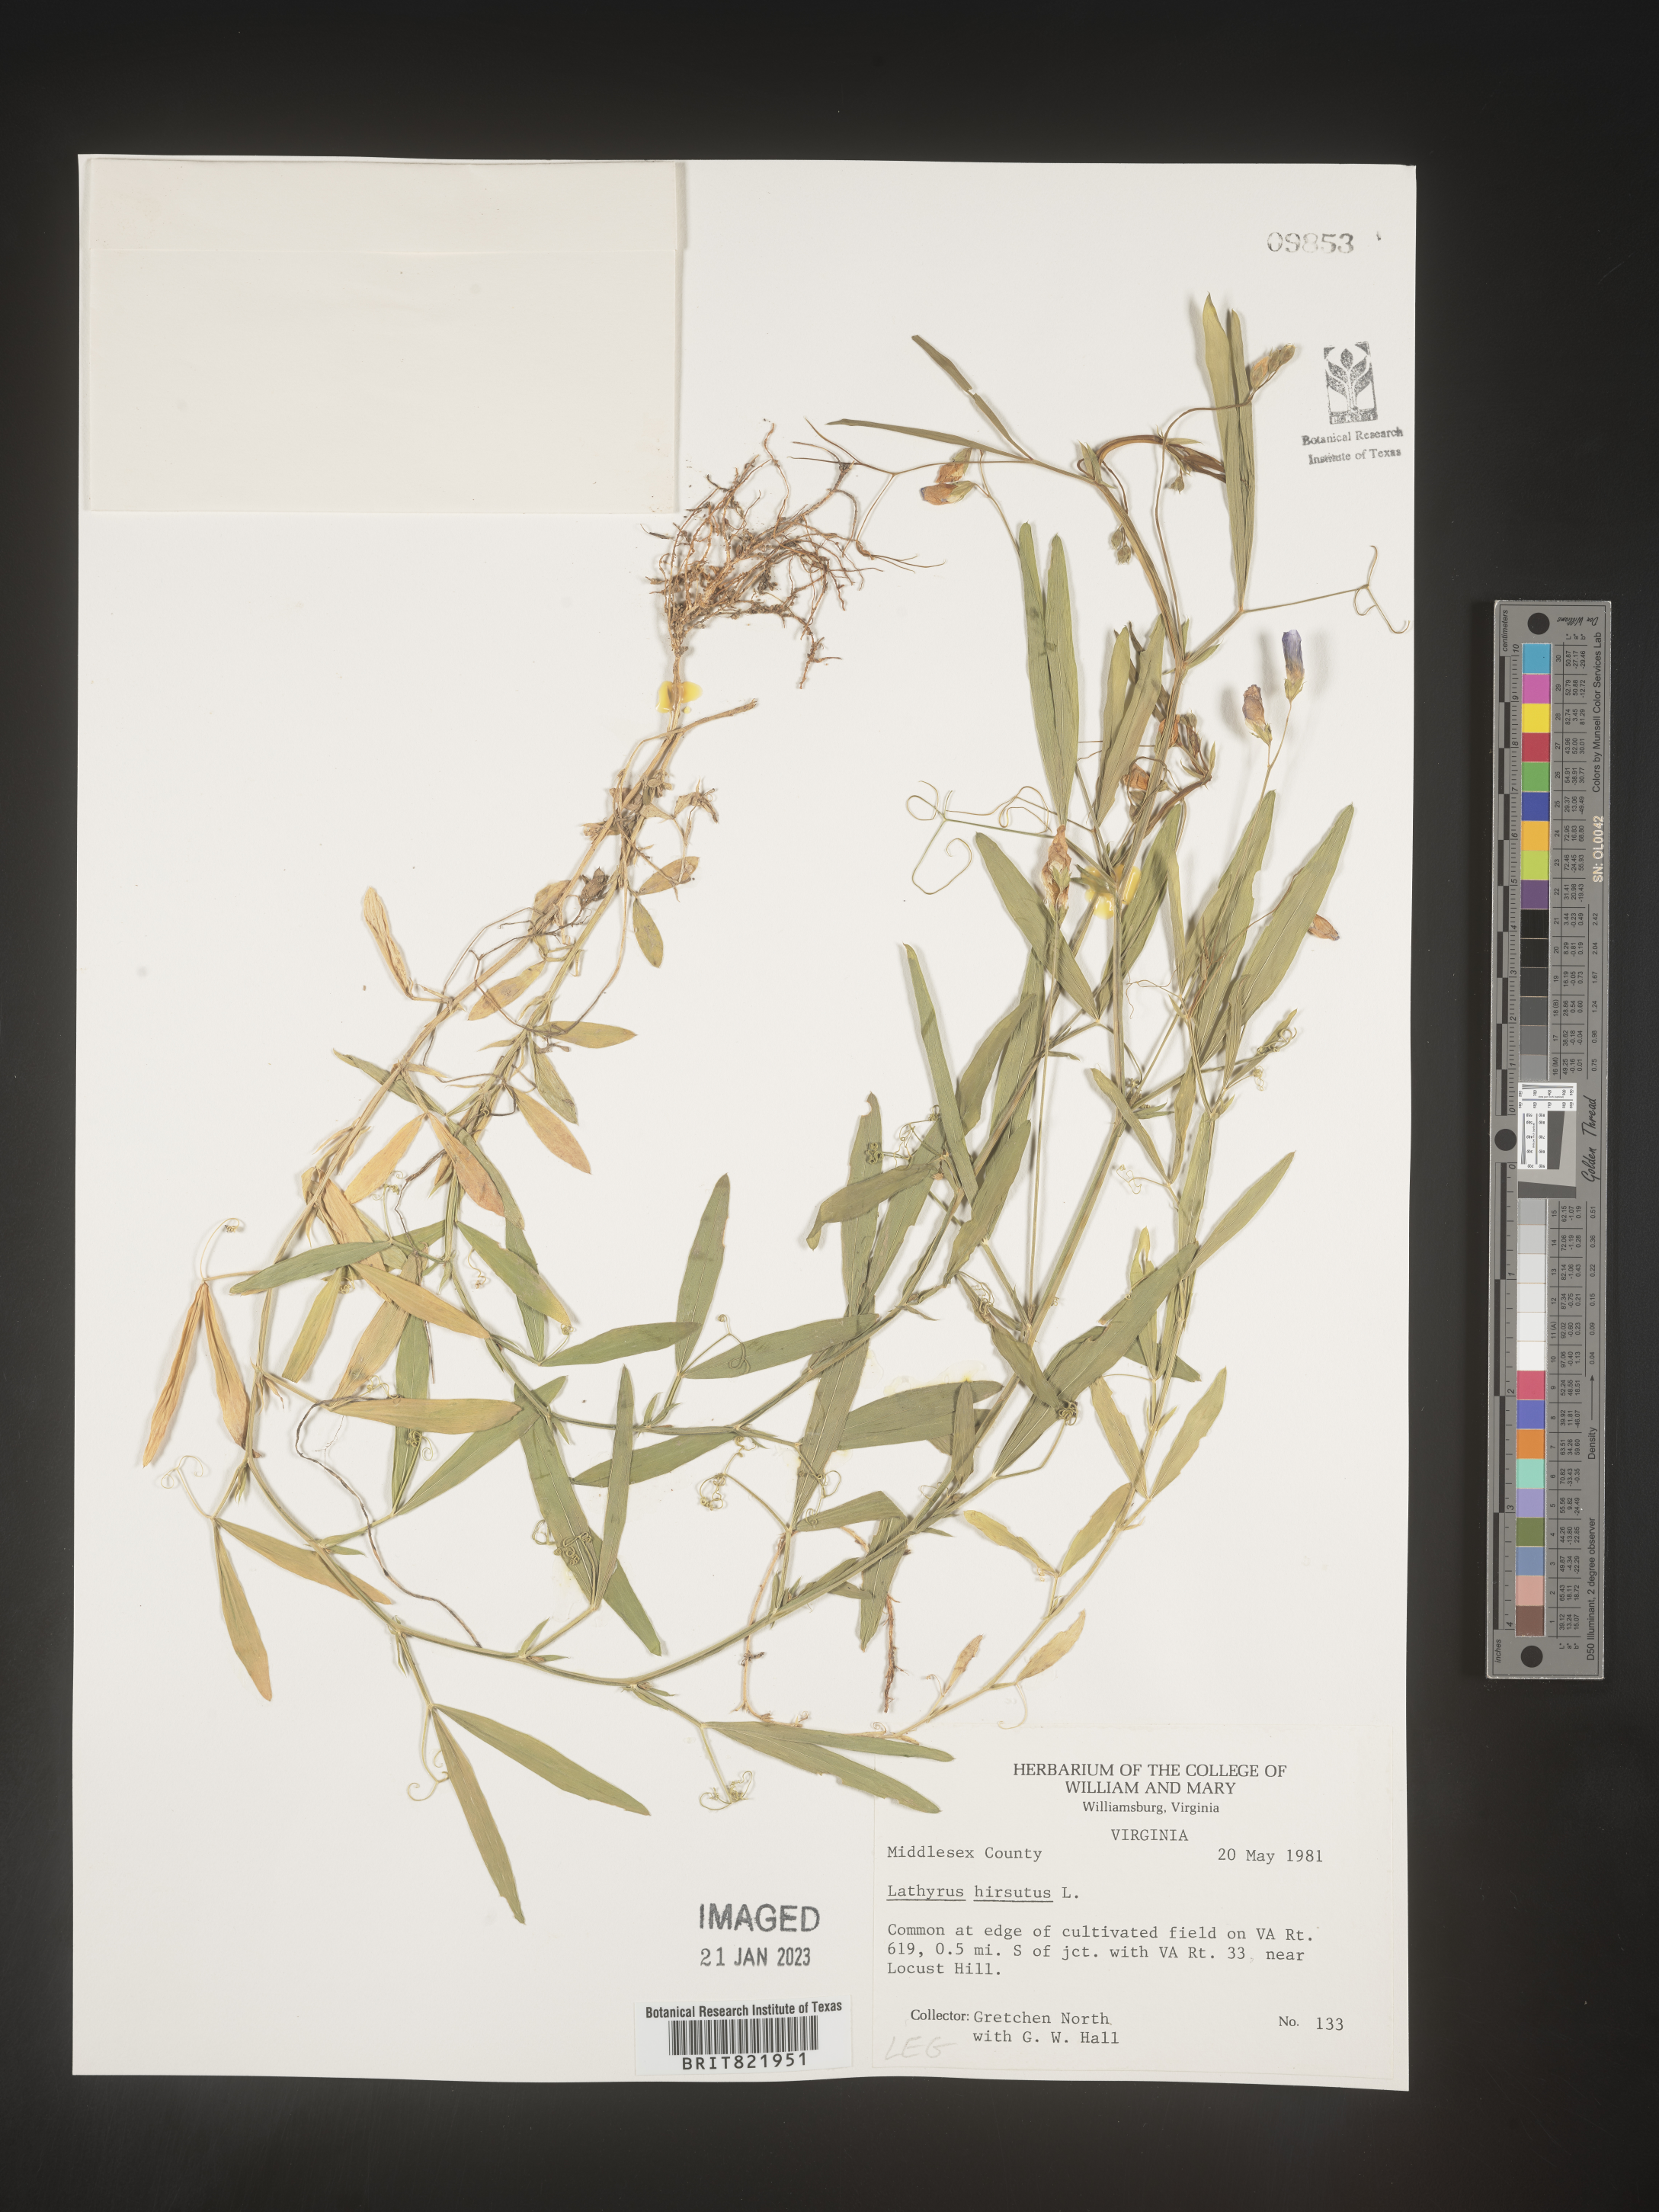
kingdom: Plantae
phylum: Tracheophyta
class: Magnoliopsida
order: Fabales
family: Fabaceae
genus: Lathyrus
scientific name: Lathyrus hirsutus
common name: Hairy vetchling
